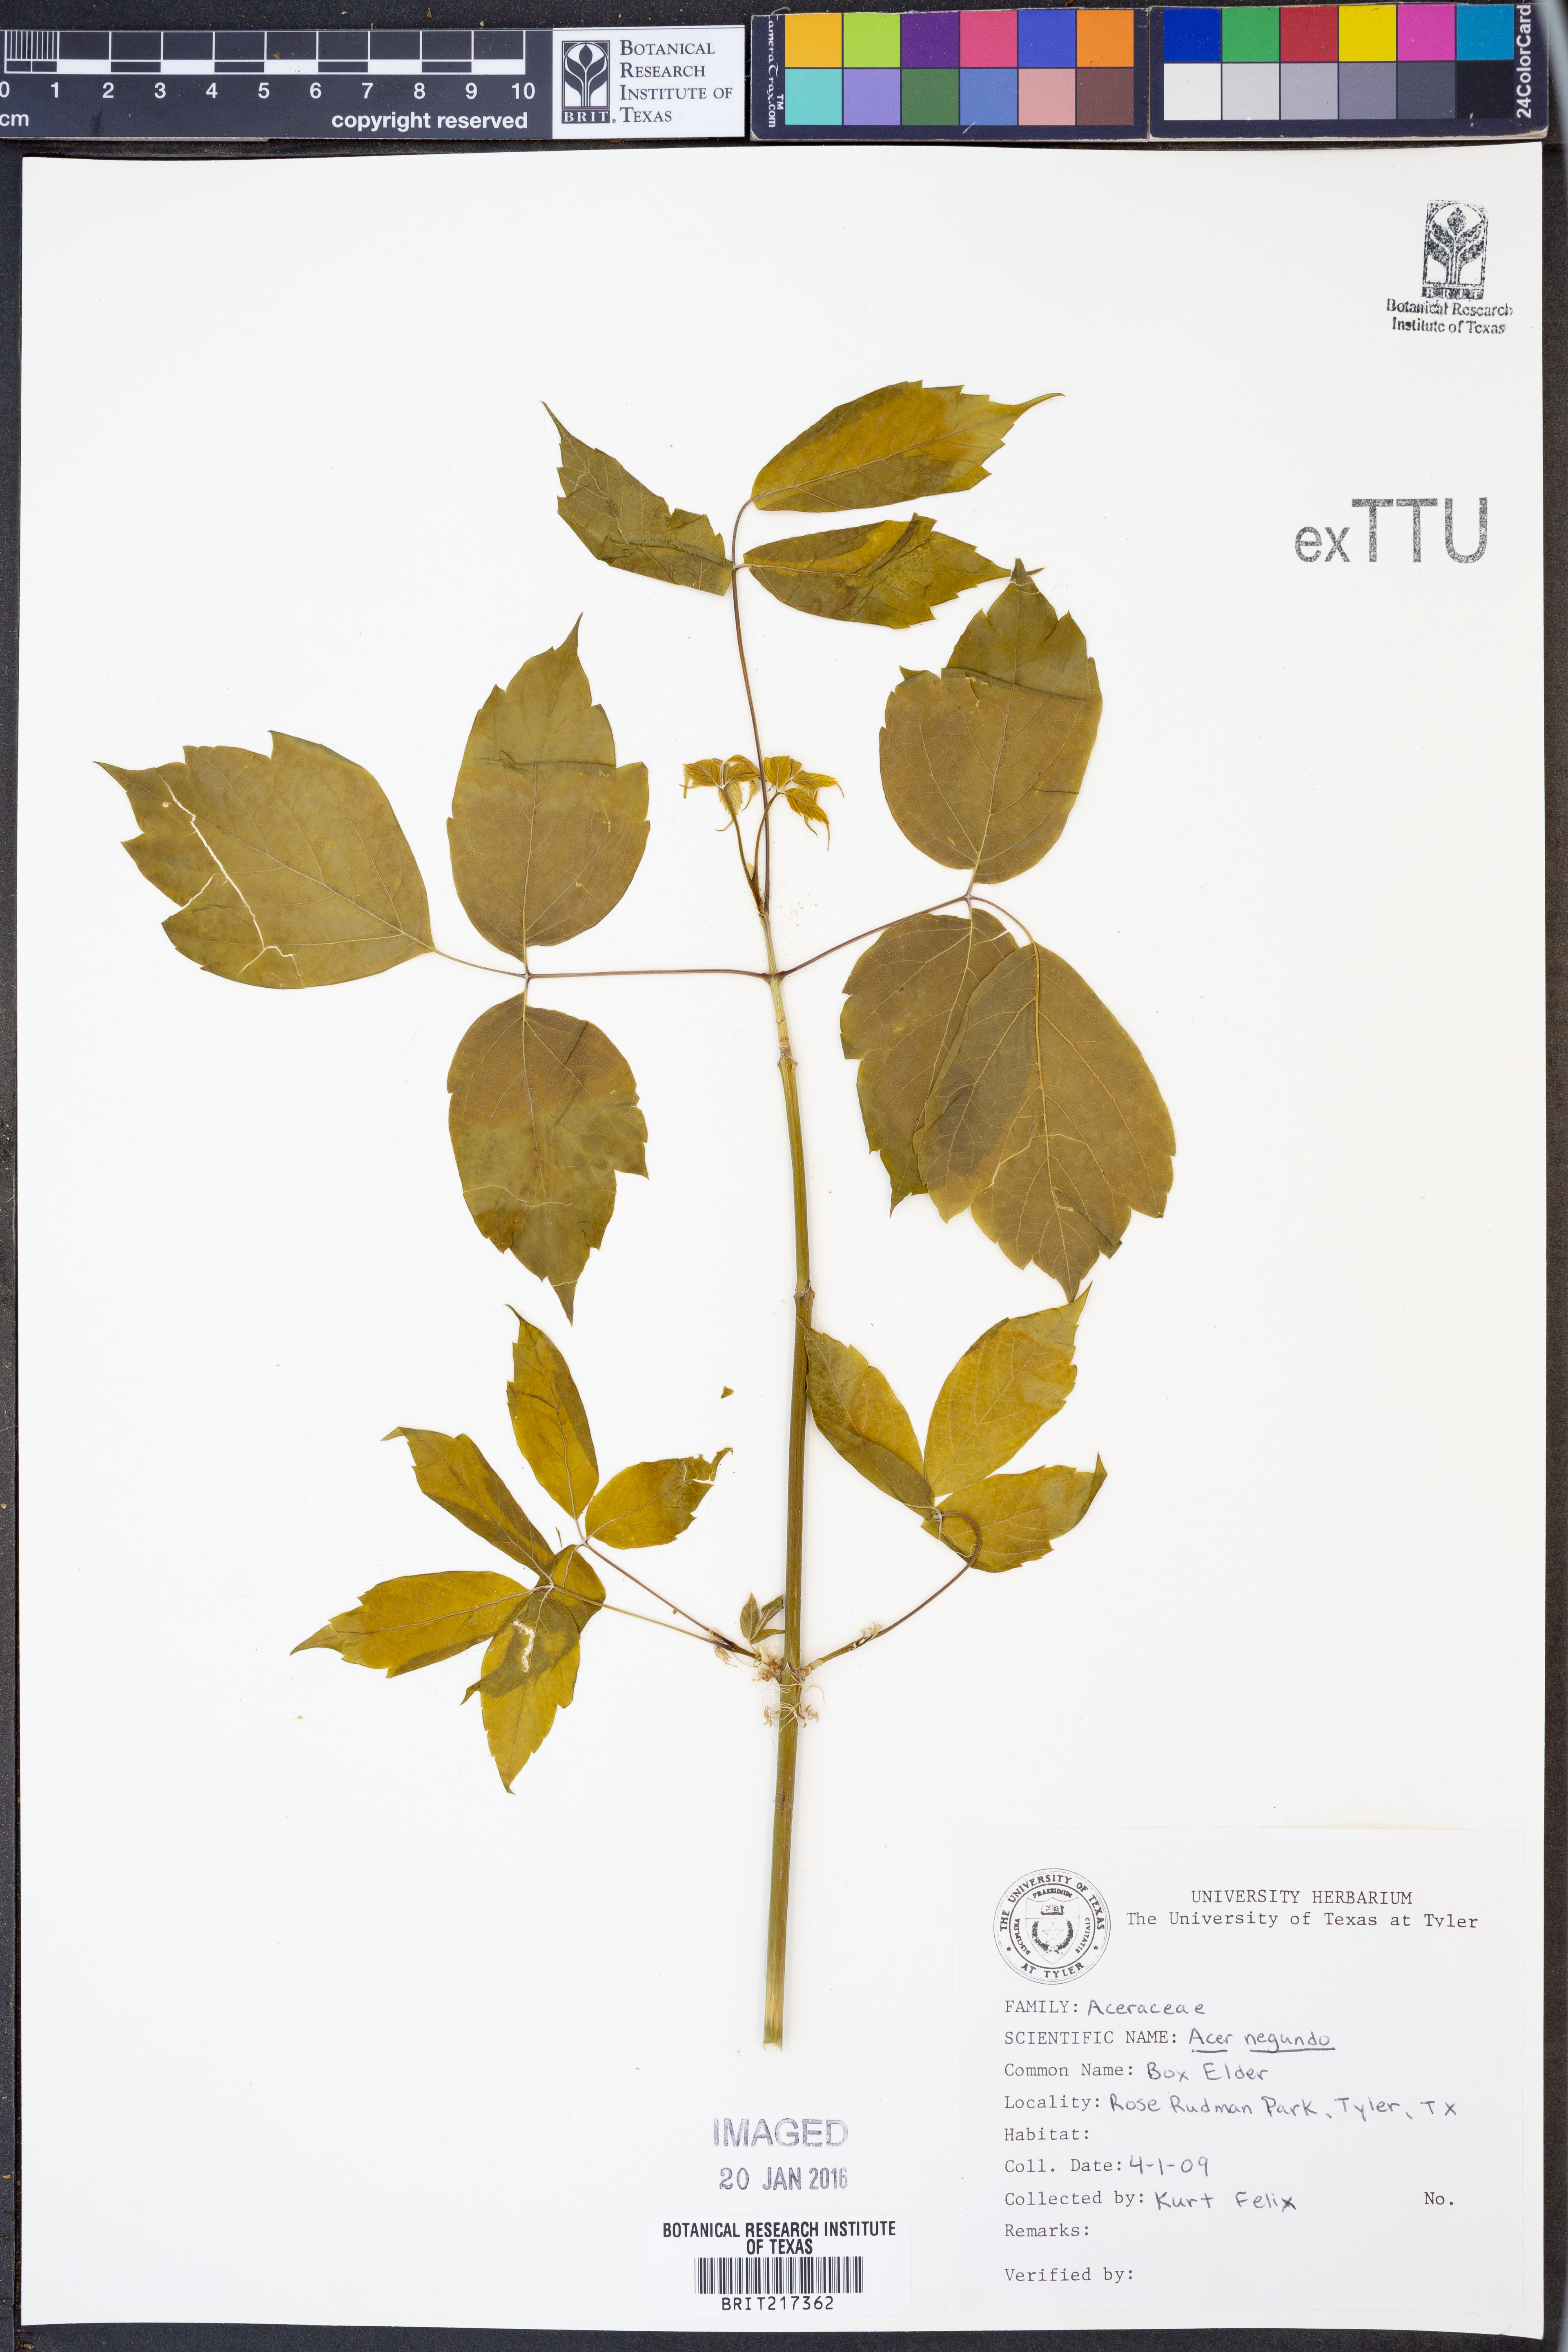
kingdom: Plantae
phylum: Tracheophyta
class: Magnoliopsida
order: Sapindales
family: Sapindaceae
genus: Acer
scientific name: Acer negundo
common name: Ashleaf maple
